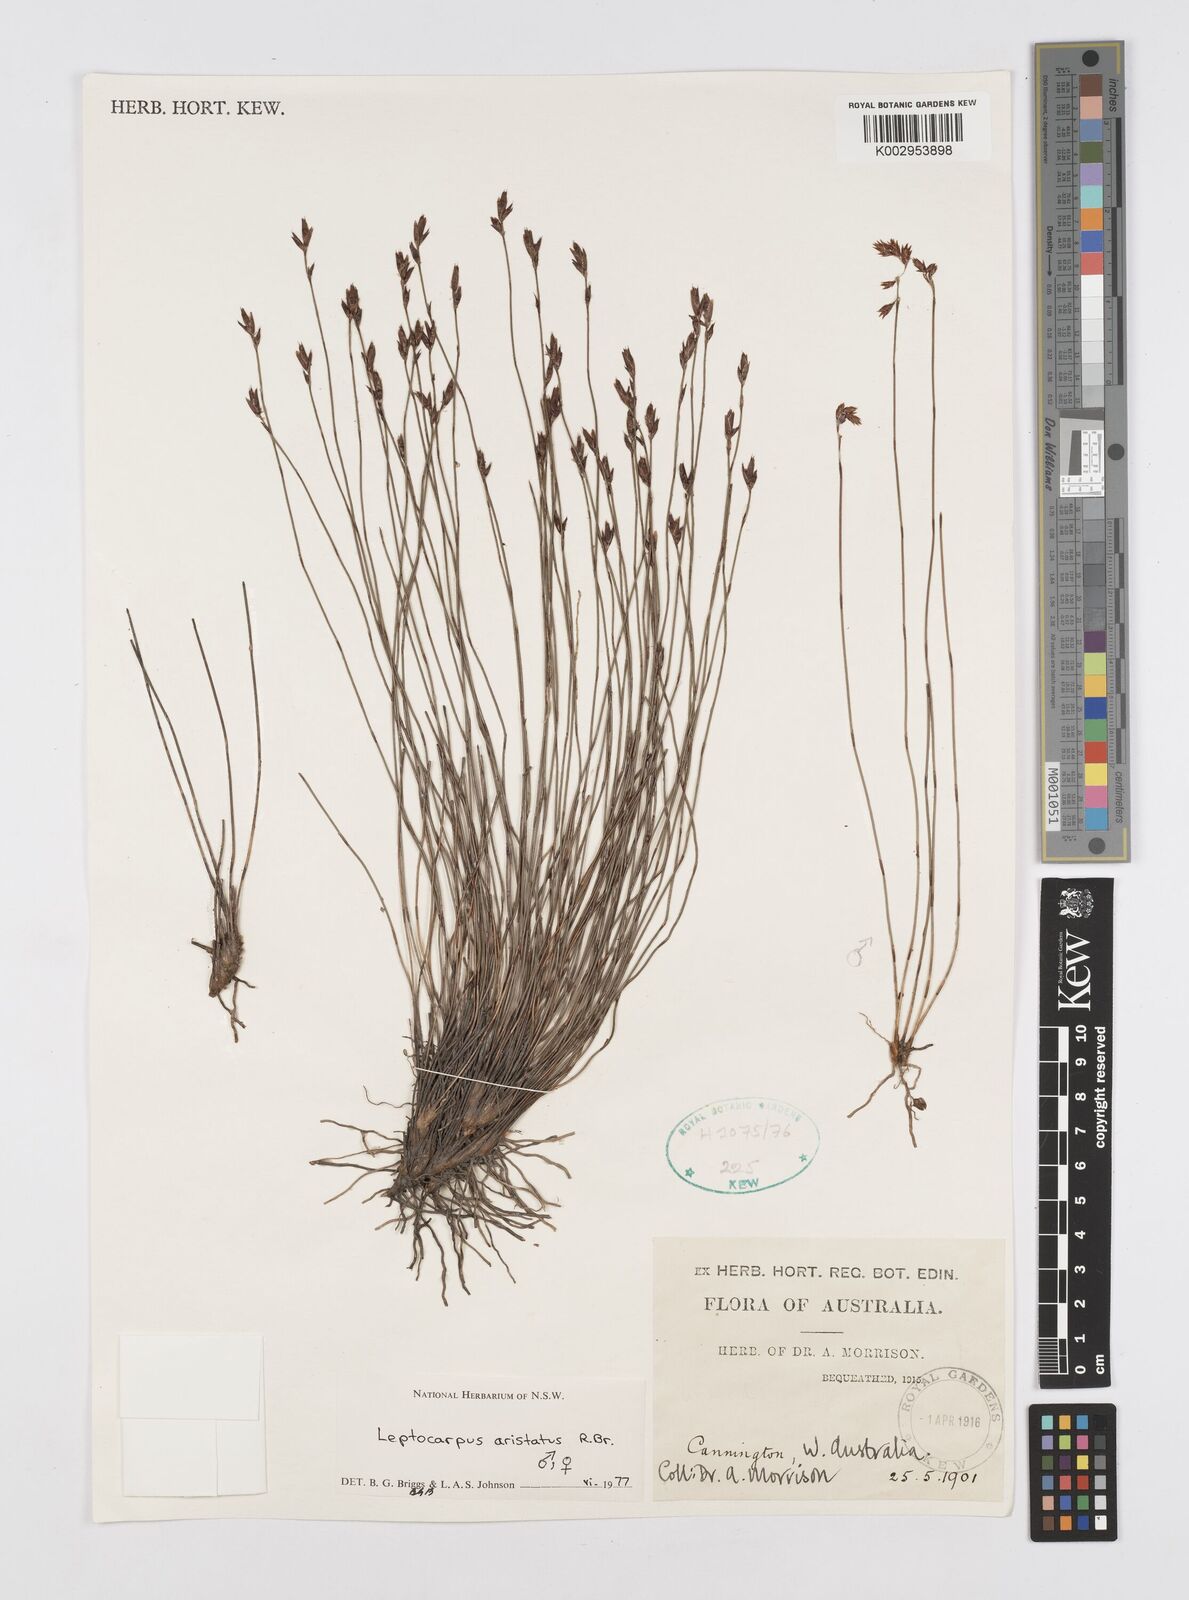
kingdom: Plantae
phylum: Tracheophyta
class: Liliopsida
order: Poales
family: Restionaceae
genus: Chaetanthus
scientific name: Chaetanthus aristatus
